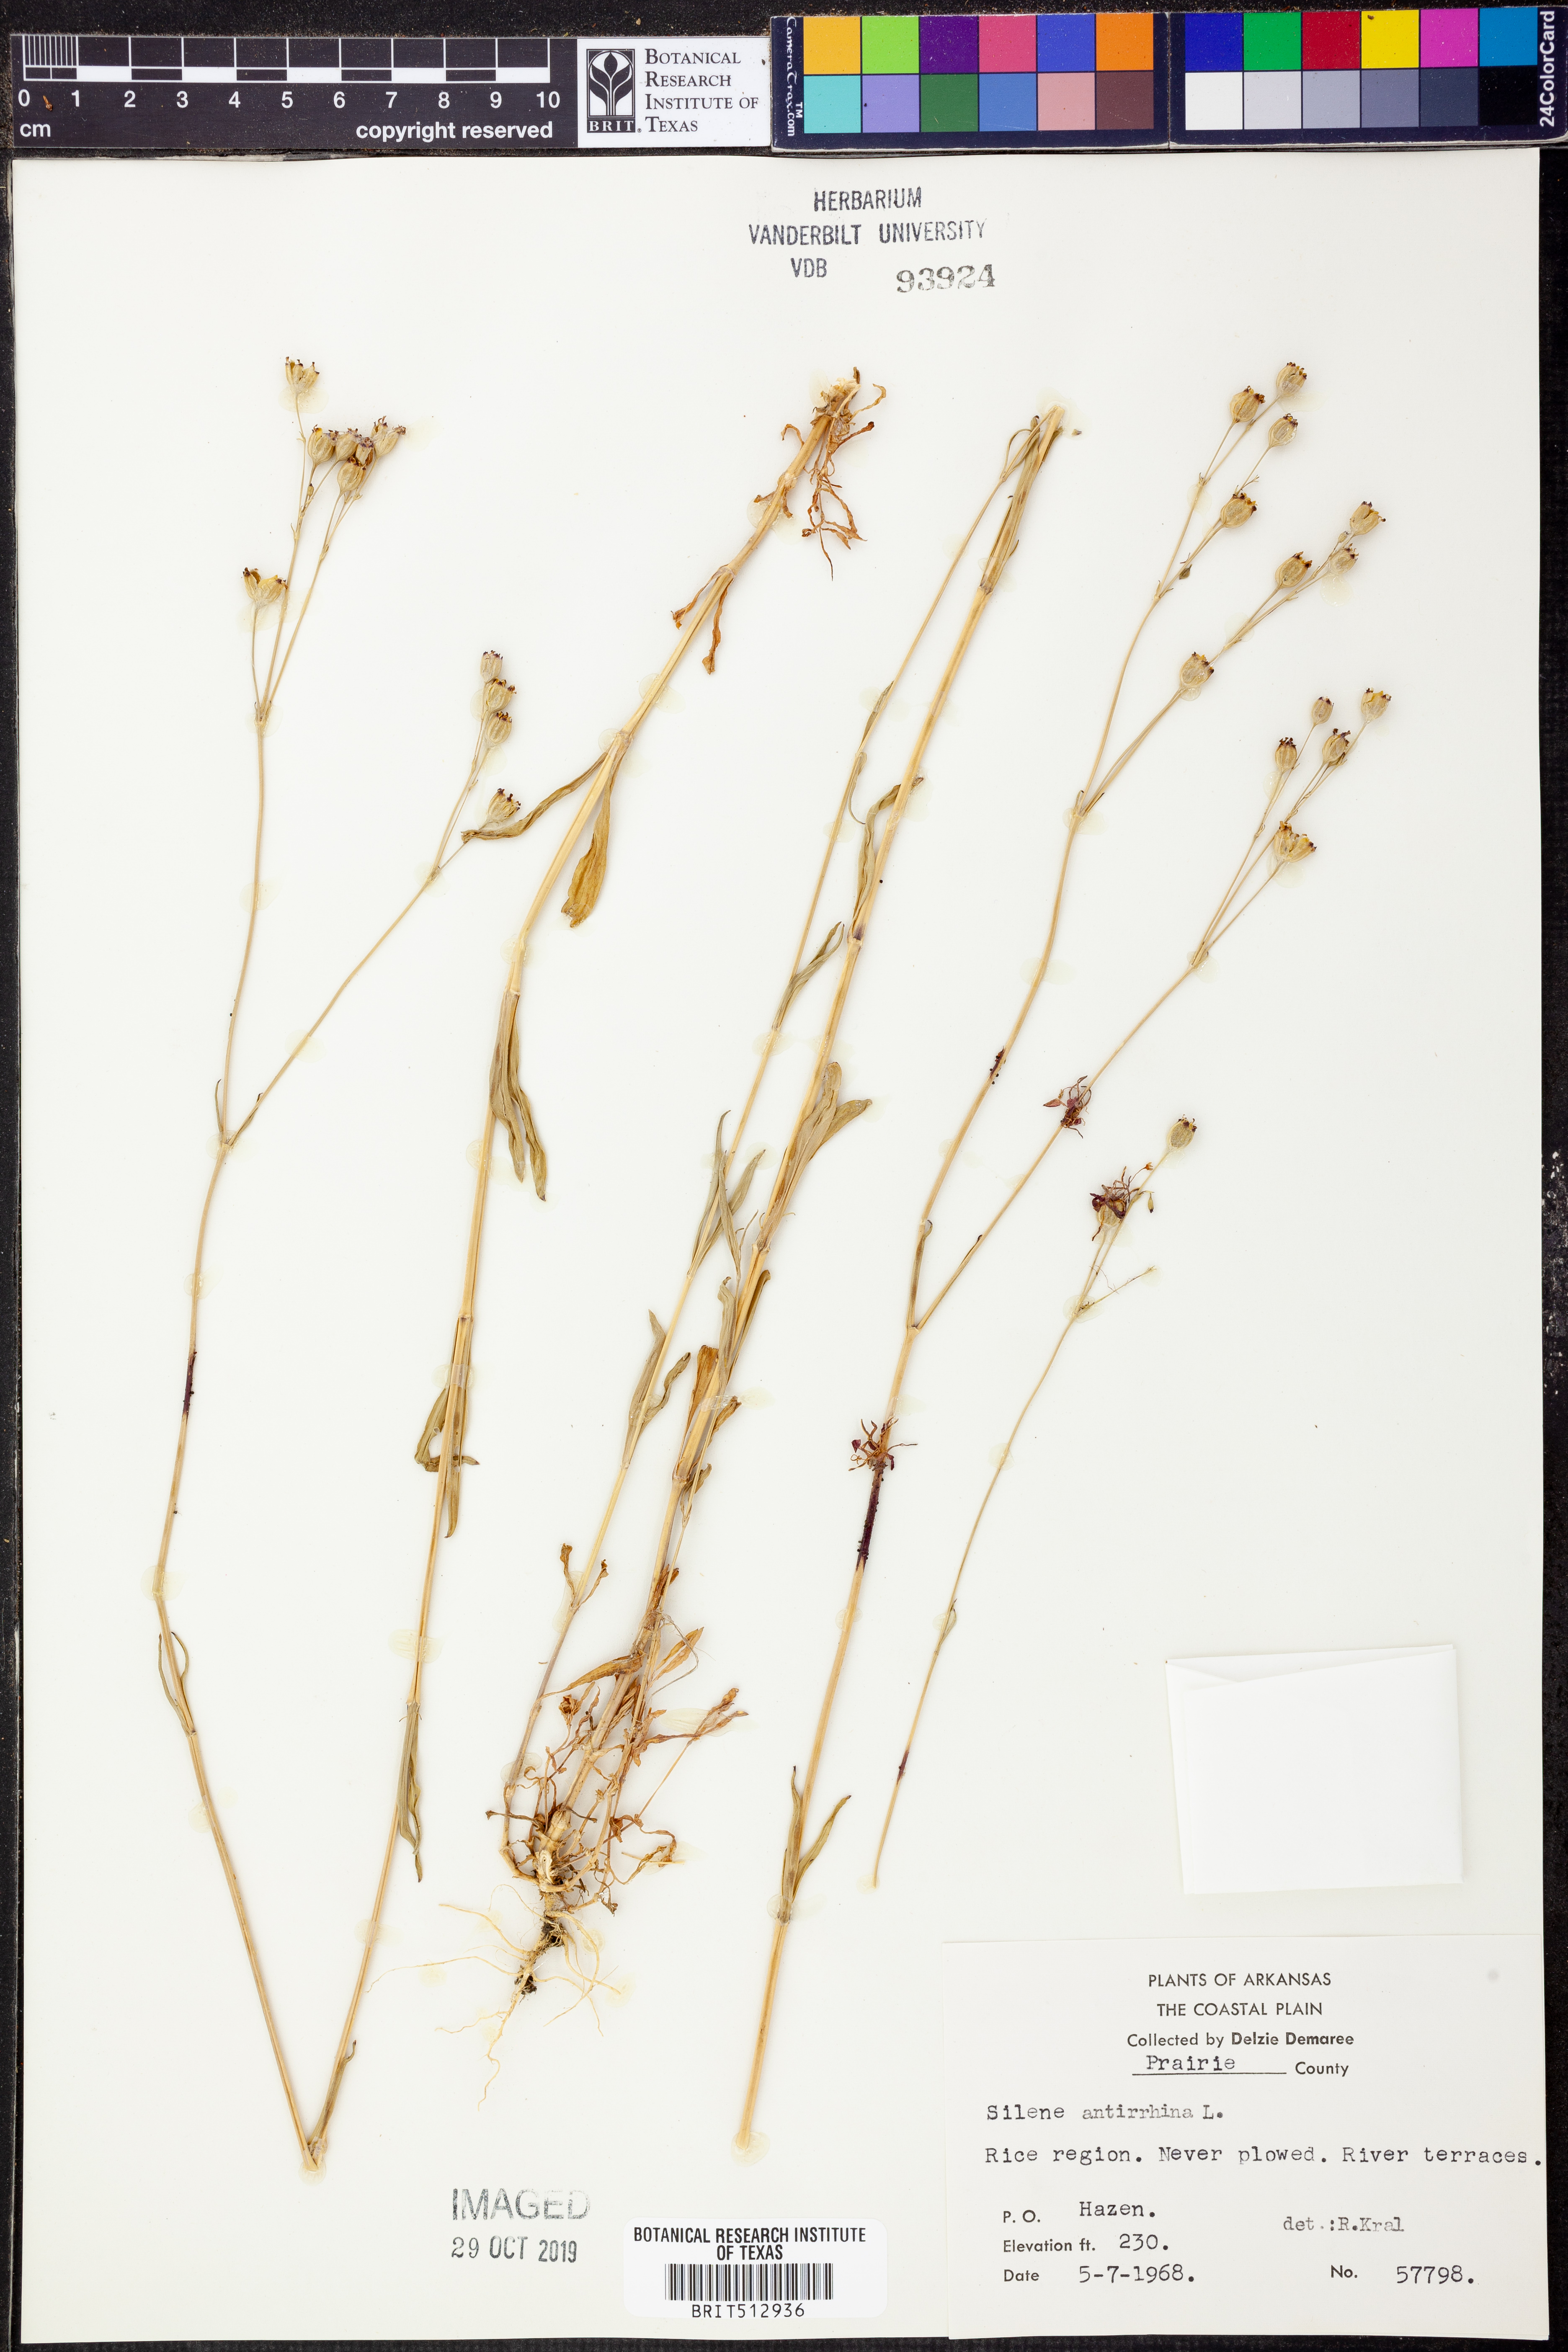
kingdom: Plantae
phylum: Tracheophyta
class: Magnoliopsida
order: Caryophyllales
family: Caryophyllaceae
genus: Silene
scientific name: Silene antirrhina
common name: Sleepy catchfly
